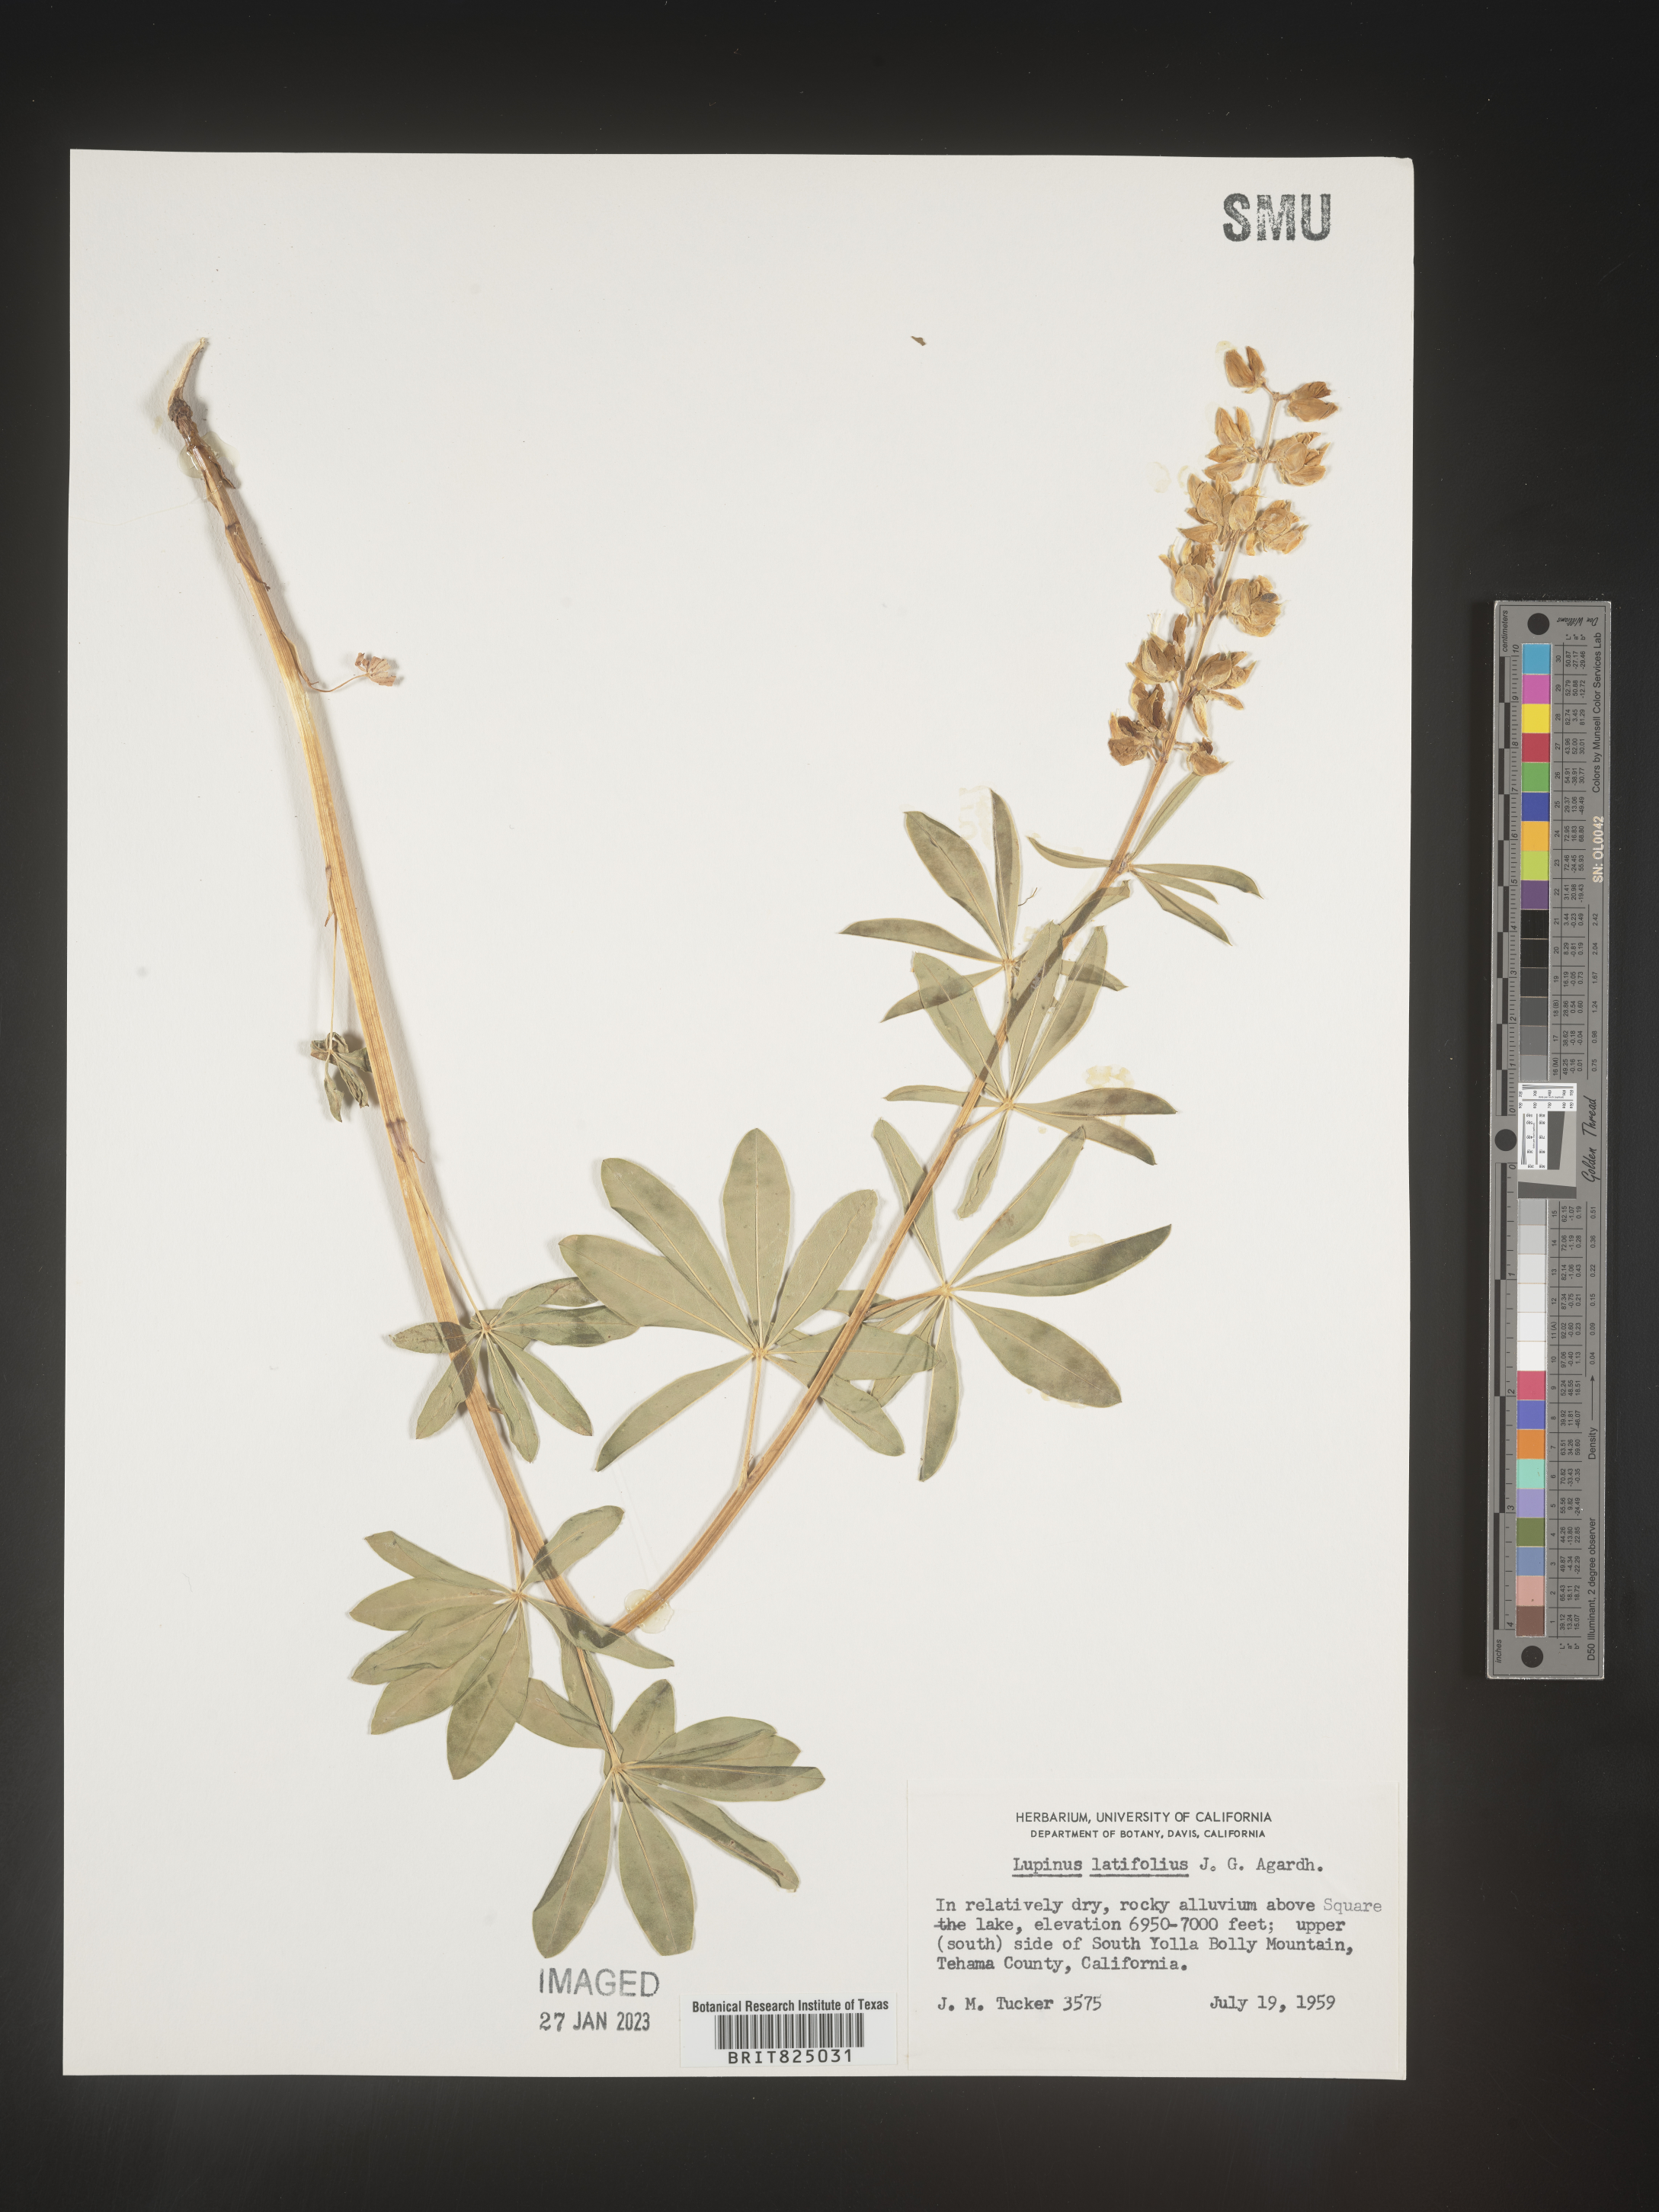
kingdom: Plantae
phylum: Tracheophyta
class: Magnoliopsida
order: Fabales
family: Fabaceae
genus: Lupinus
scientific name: Lupinus
